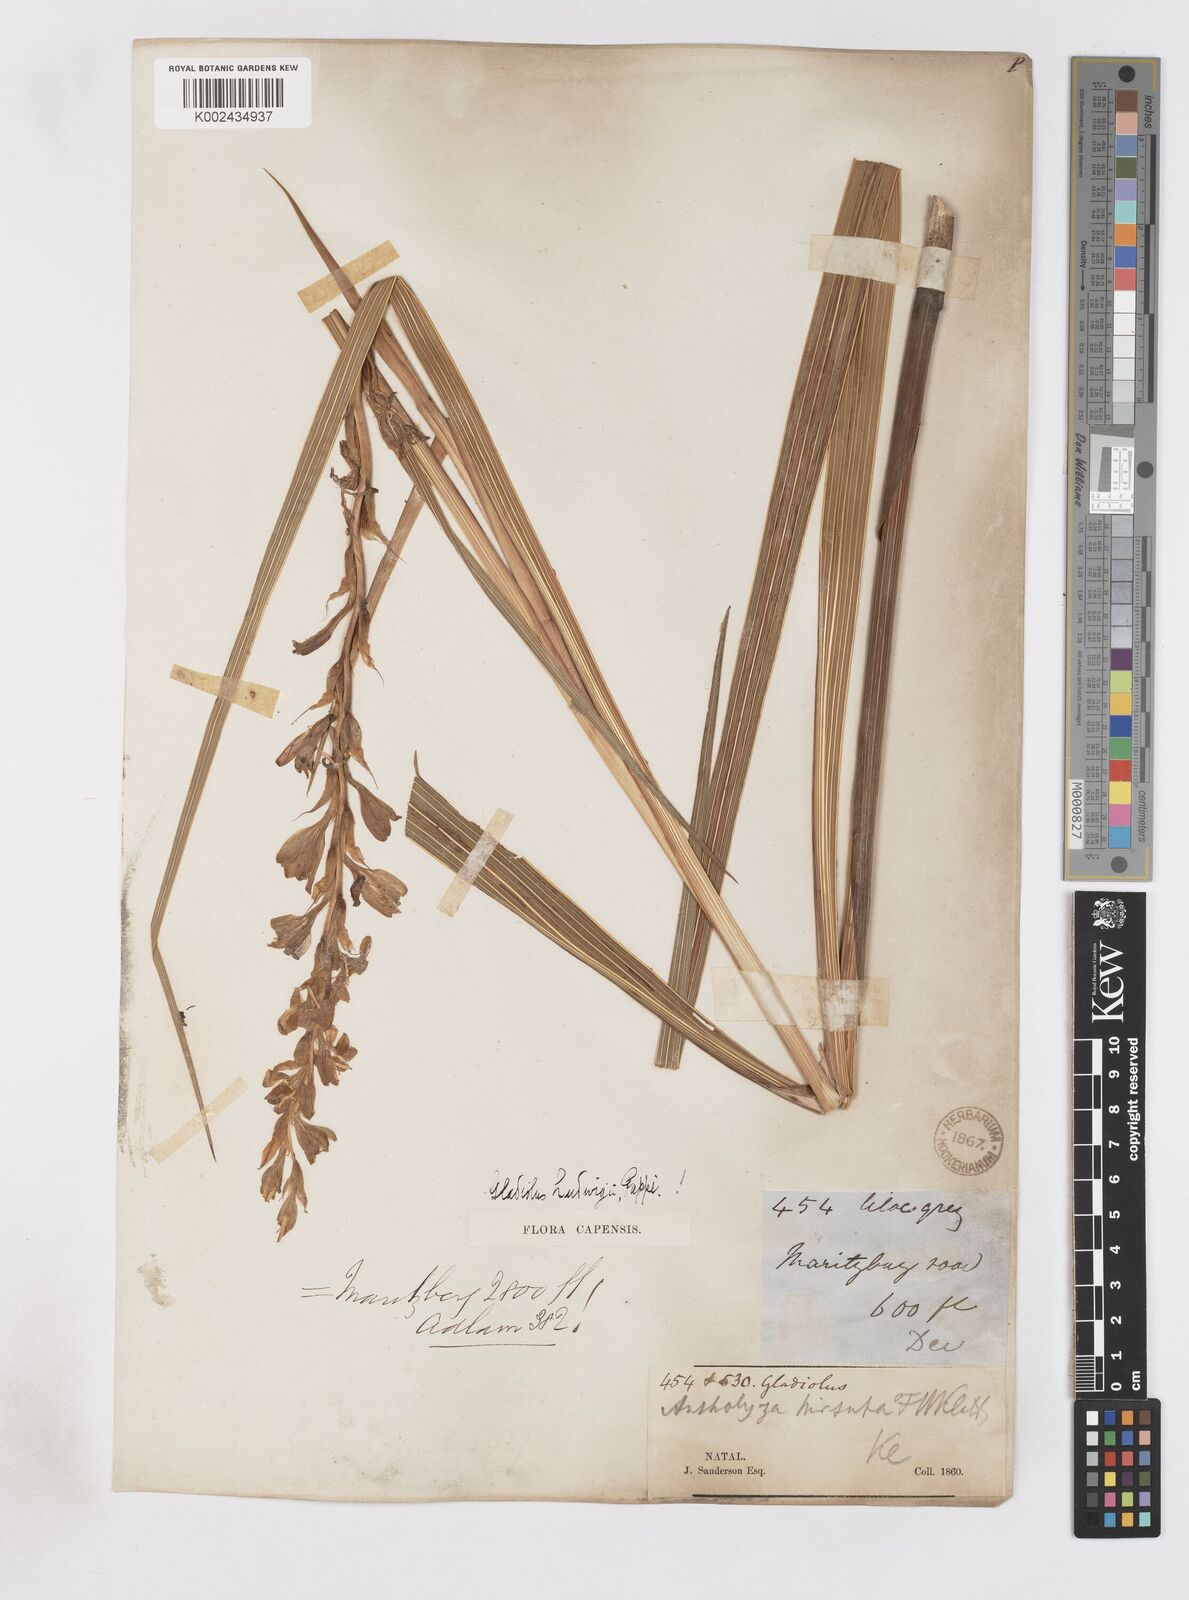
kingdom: Plantae
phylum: Tracheophyta
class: Liliopsida
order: Asparagales
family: Iridaceae
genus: Gladiolus
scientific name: Gladiolus sericeovillosus
